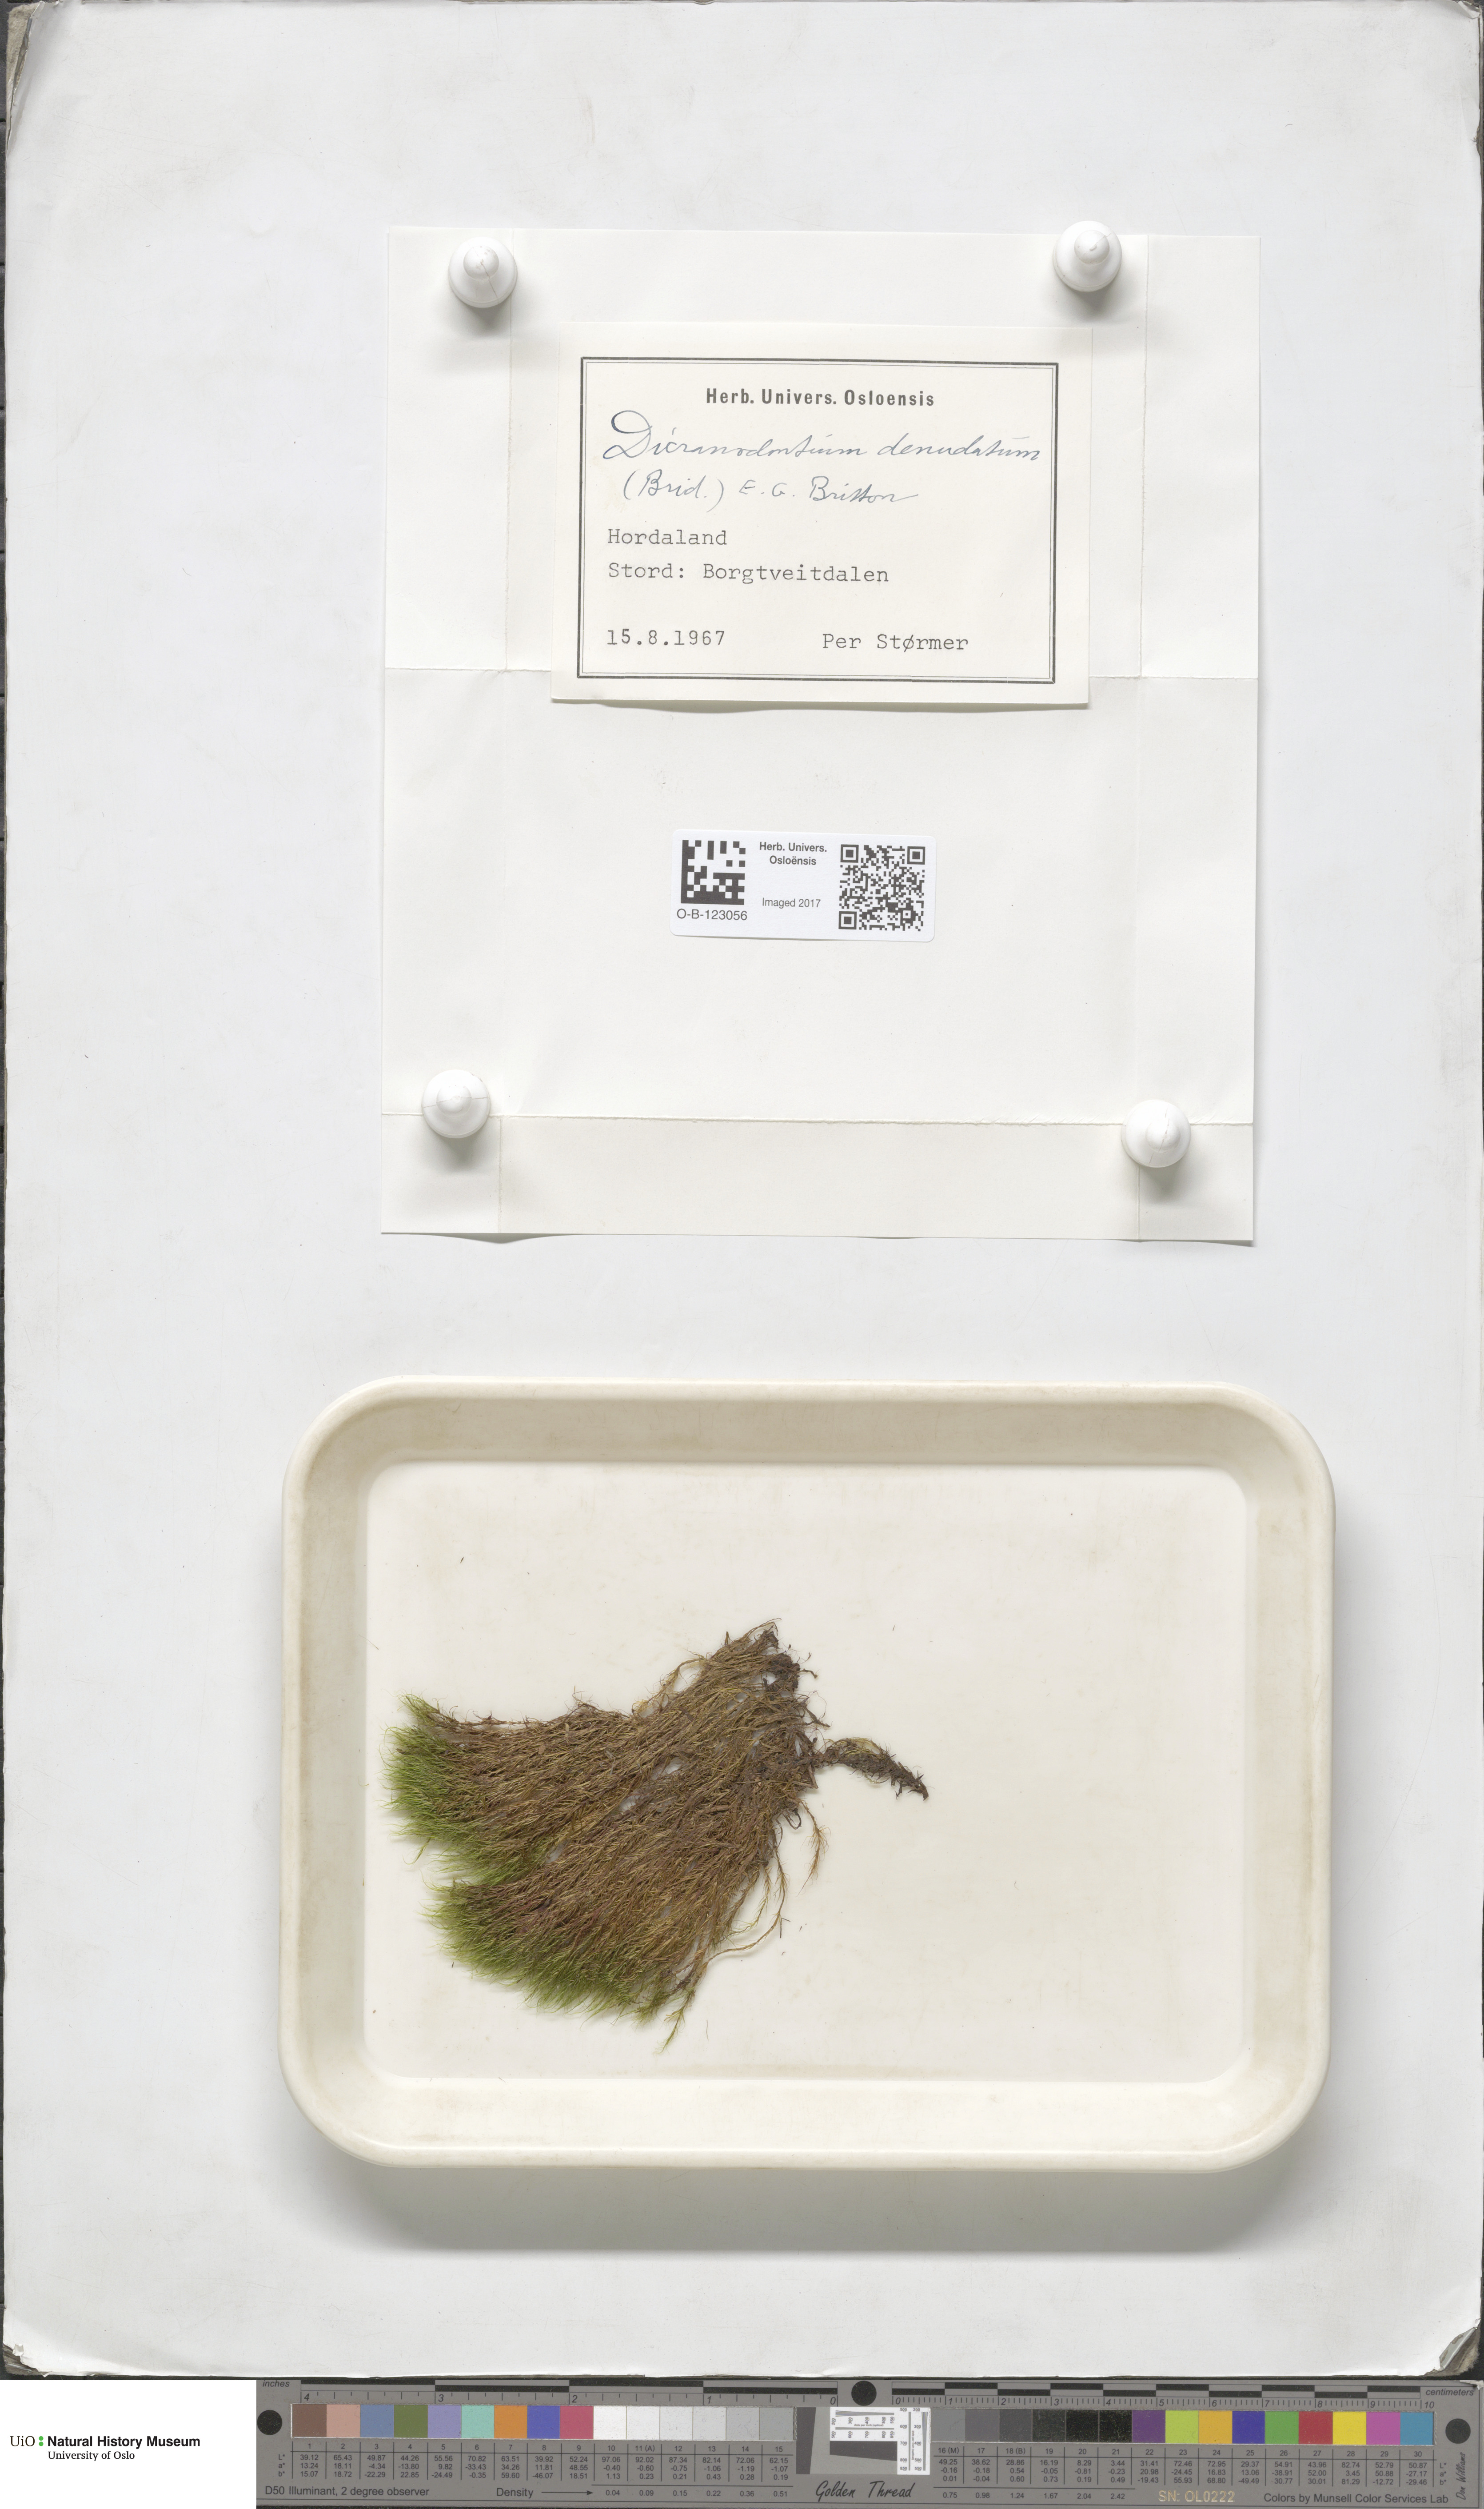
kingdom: Plantae
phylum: Bryophyta
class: Bryopsida
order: Dicranales
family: Leucobryaceae
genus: Dicranodontium
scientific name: Dicranodontium denudatum
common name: Beaked bow moss
